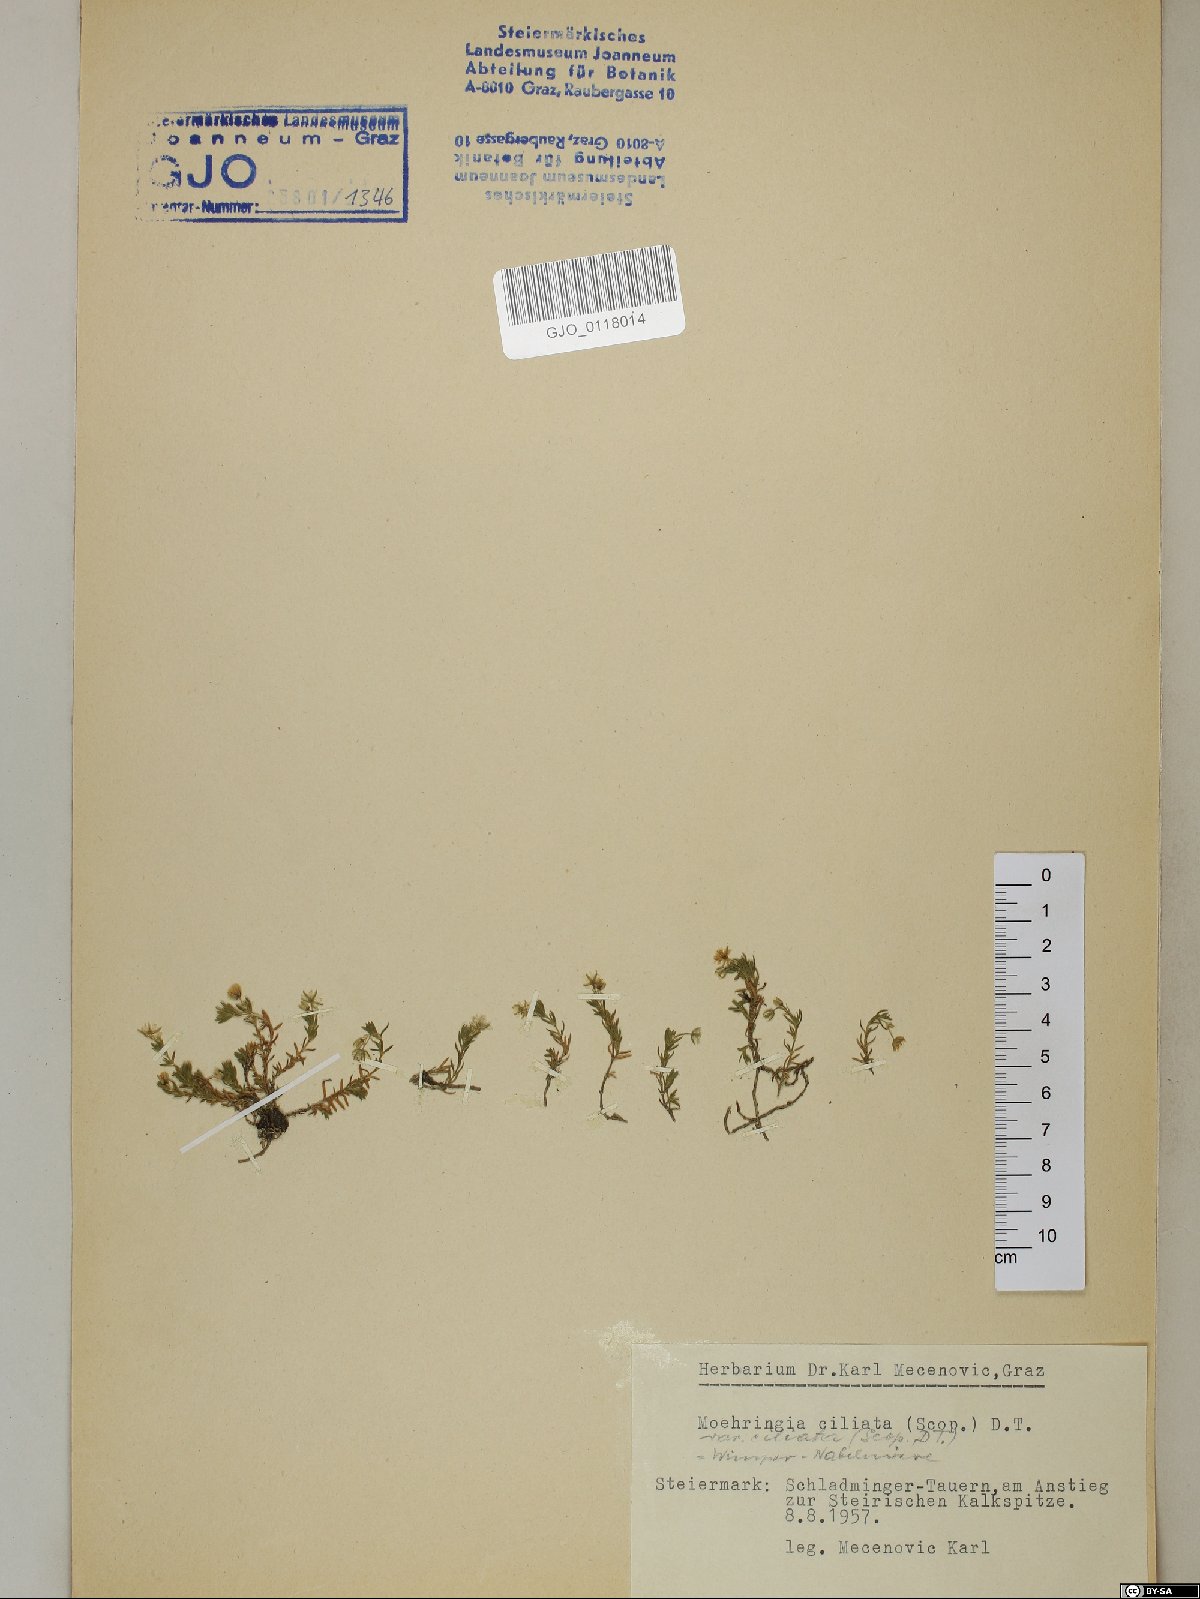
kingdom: Plantae
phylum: Tracheophyta
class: Magnoliopsida
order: Caryophyllales
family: Caryophyllaceae
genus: Moehringia
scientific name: Moehringia ciliata
